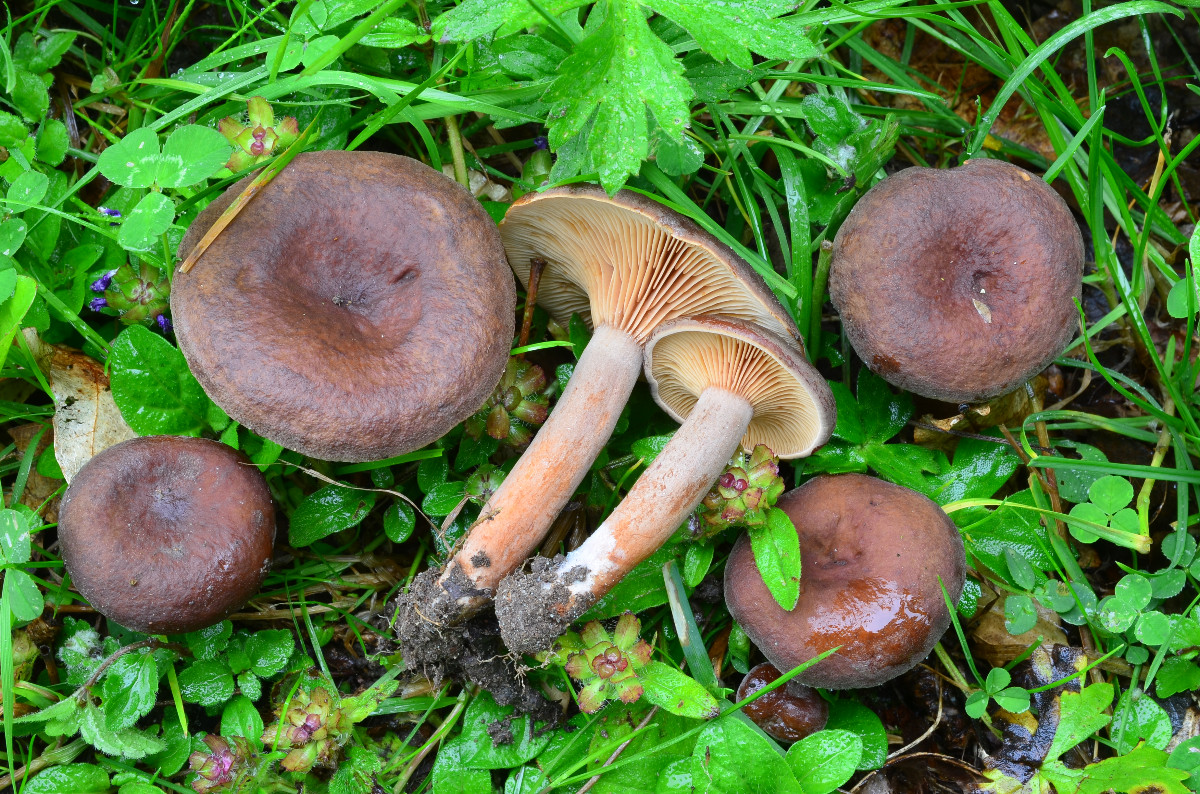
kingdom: Fungi
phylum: Basidiomycota
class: Agaricomycetes
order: Russulales
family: Russulaceae
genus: Lactarius
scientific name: Lactarius serifluus
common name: tæge-mælkehat
